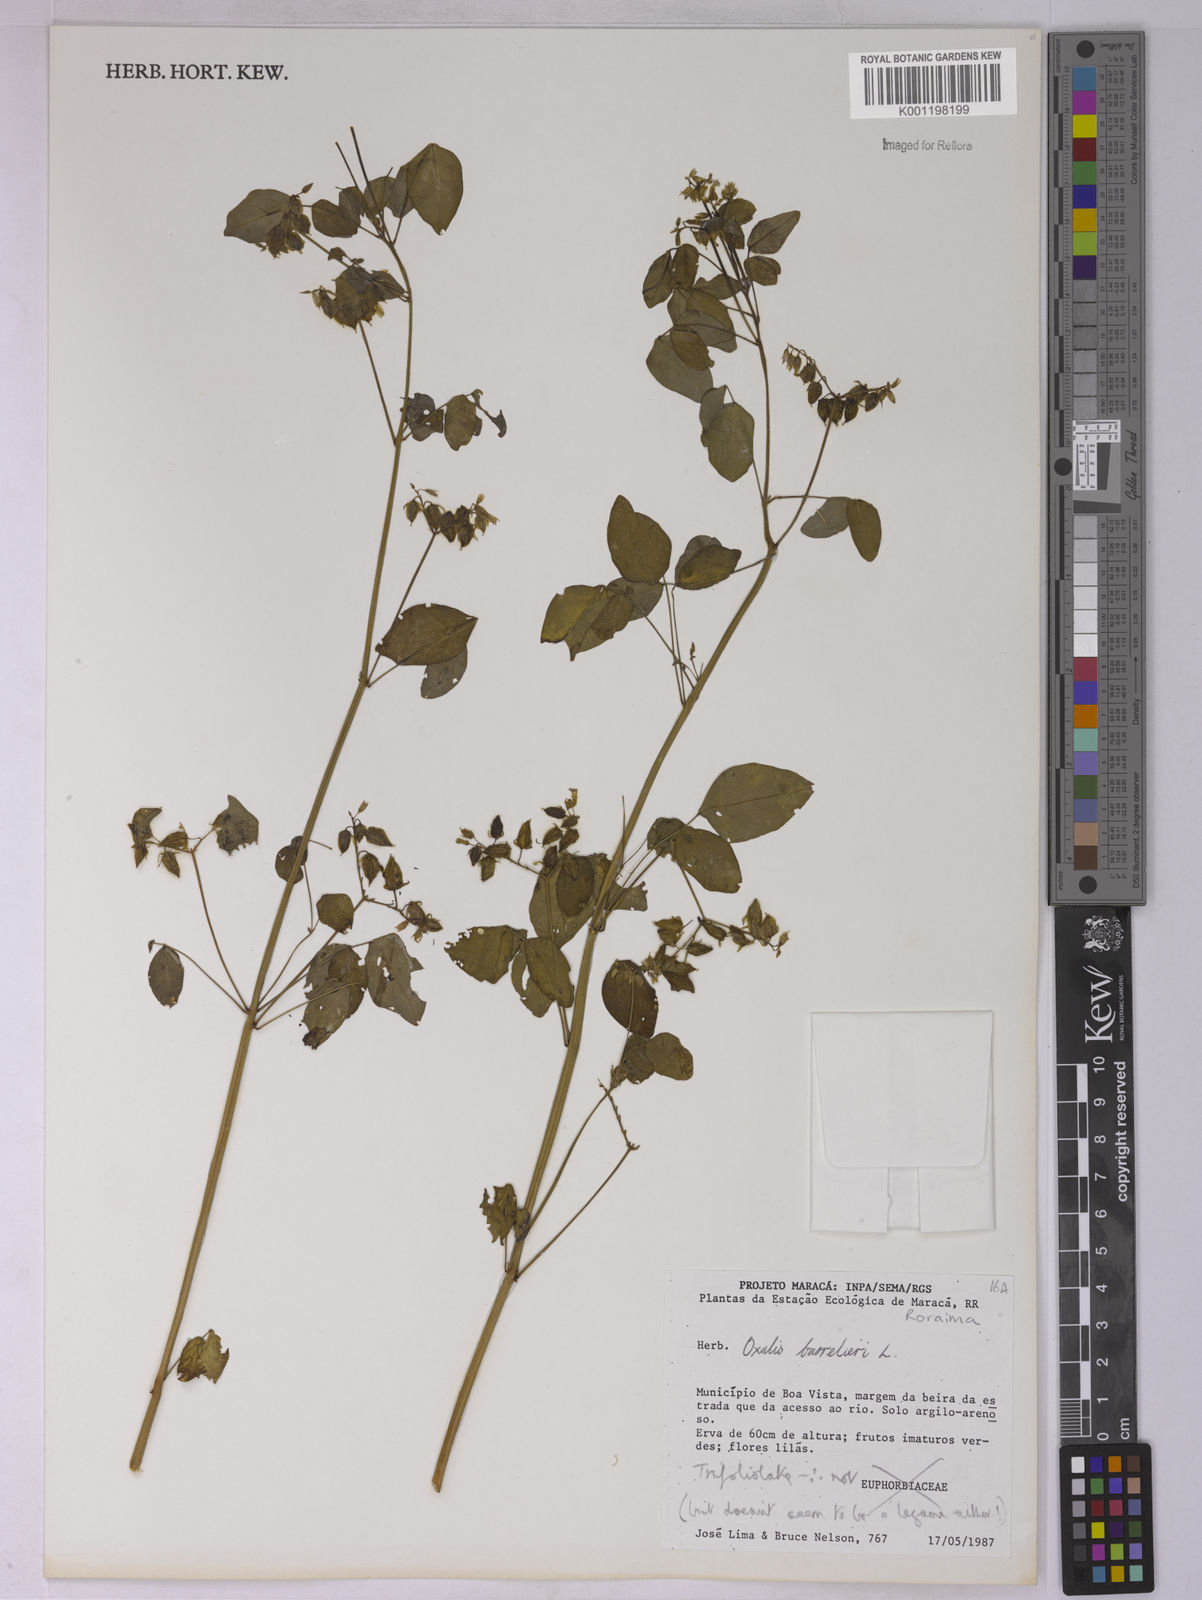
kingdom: Plantae
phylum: Tracheophyta
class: Magnoliopsida
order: Oxalidales
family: Oxalidaceae
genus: Oxalis
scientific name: Oxalis barrelieri
